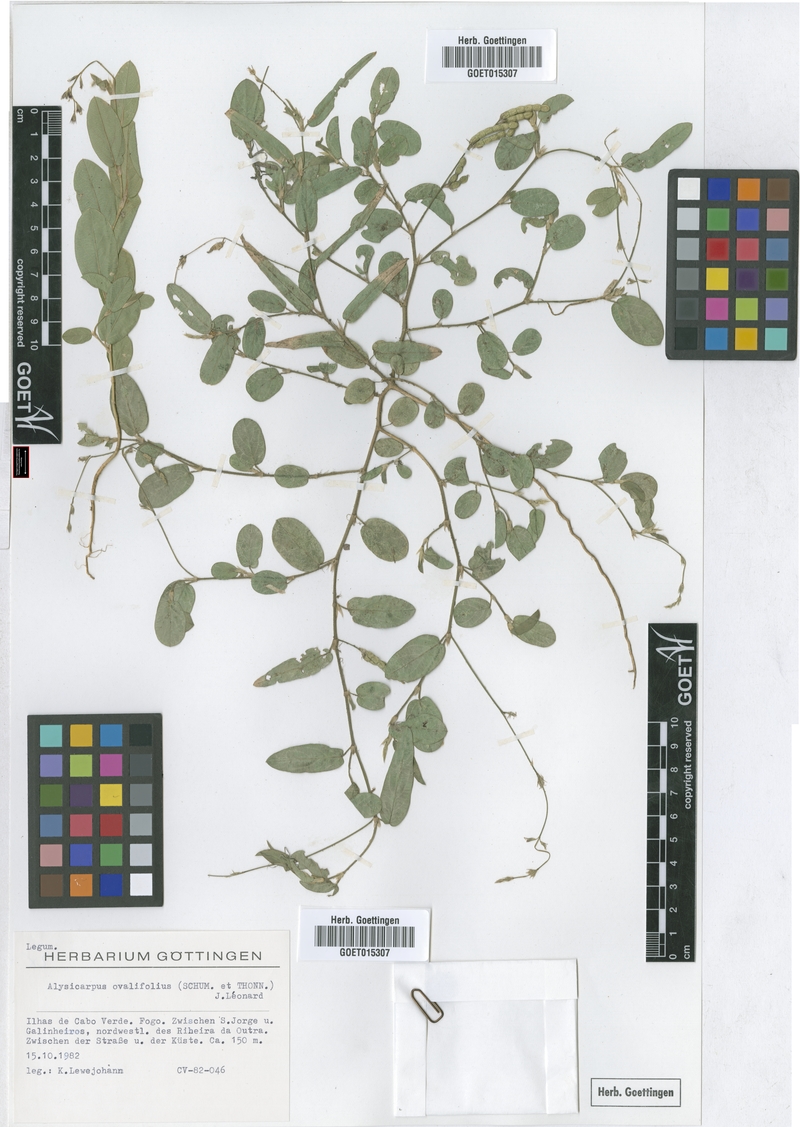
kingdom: Plantae
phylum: Tracheophyta
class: Magnoliopsida
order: Fabales
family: Fabaceae
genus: Alysicarpus
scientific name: Alysicarpus ovalifolius
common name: Alyce clover
